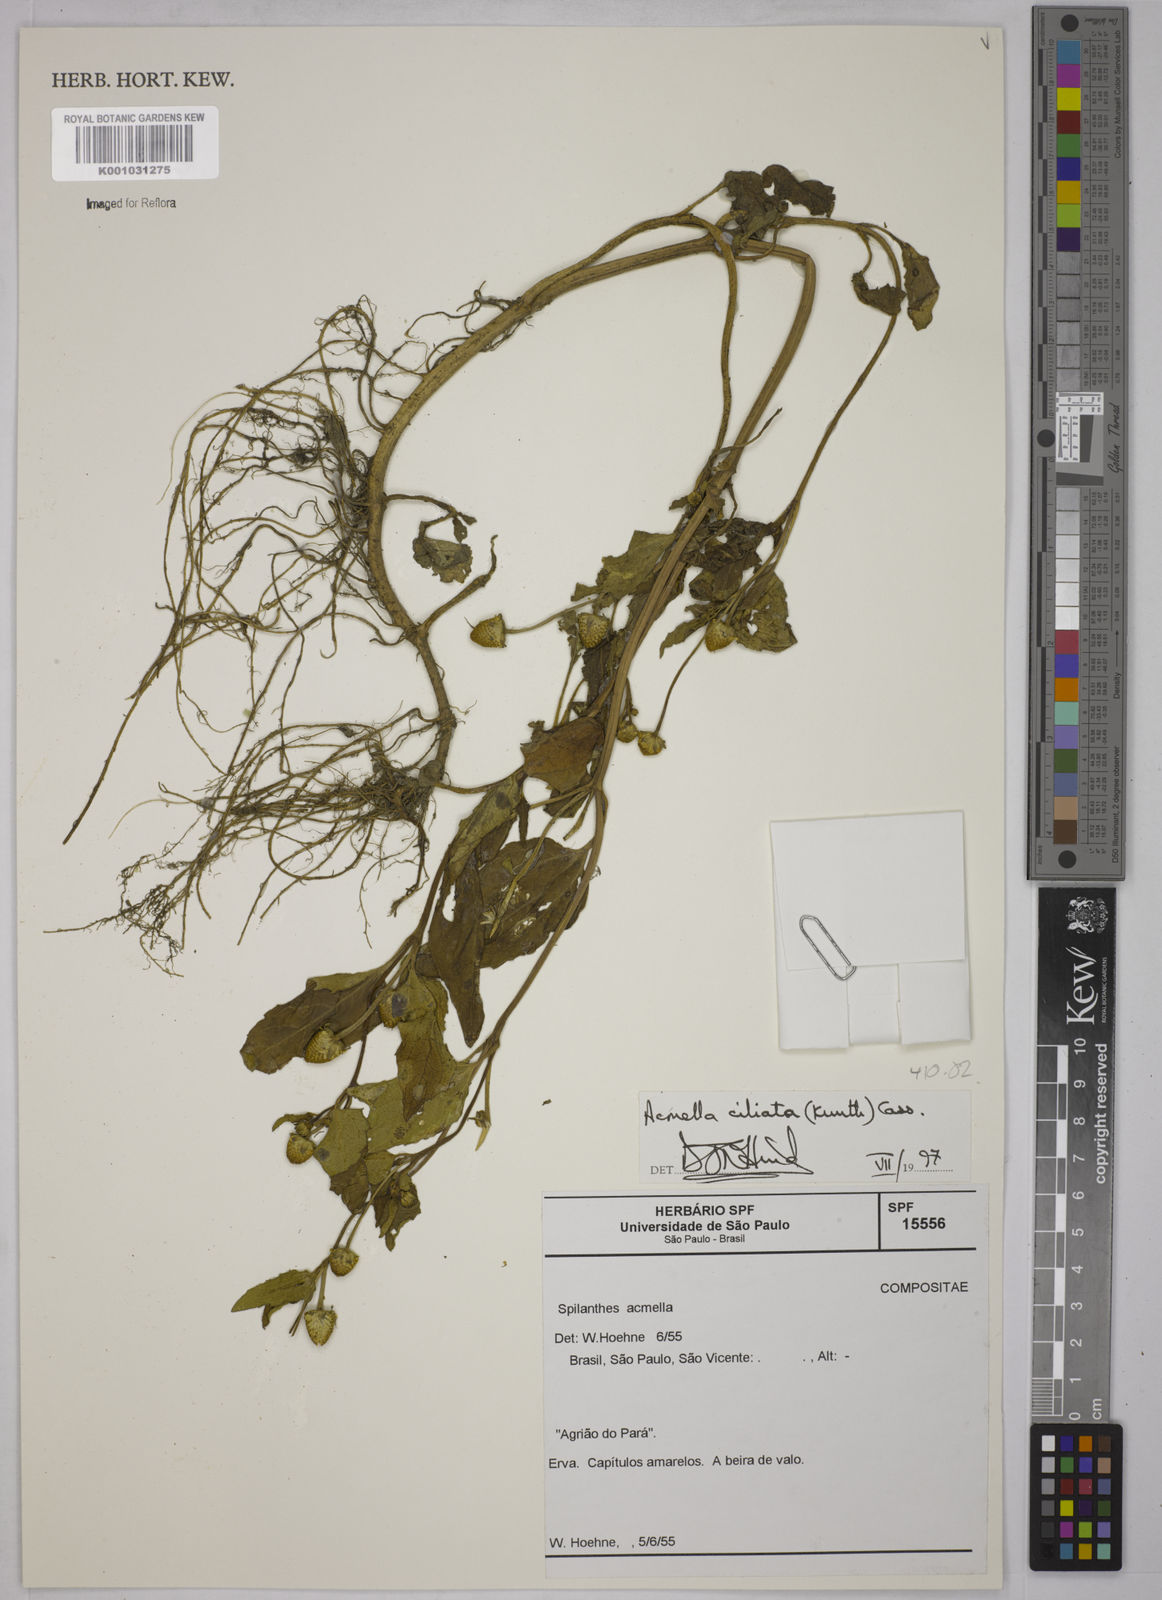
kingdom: Plantae
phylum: Tracheophyta
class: Magnoliopsida
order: Asterales
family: Asteraceae
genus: Acmella
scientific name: Acmella ciliata
